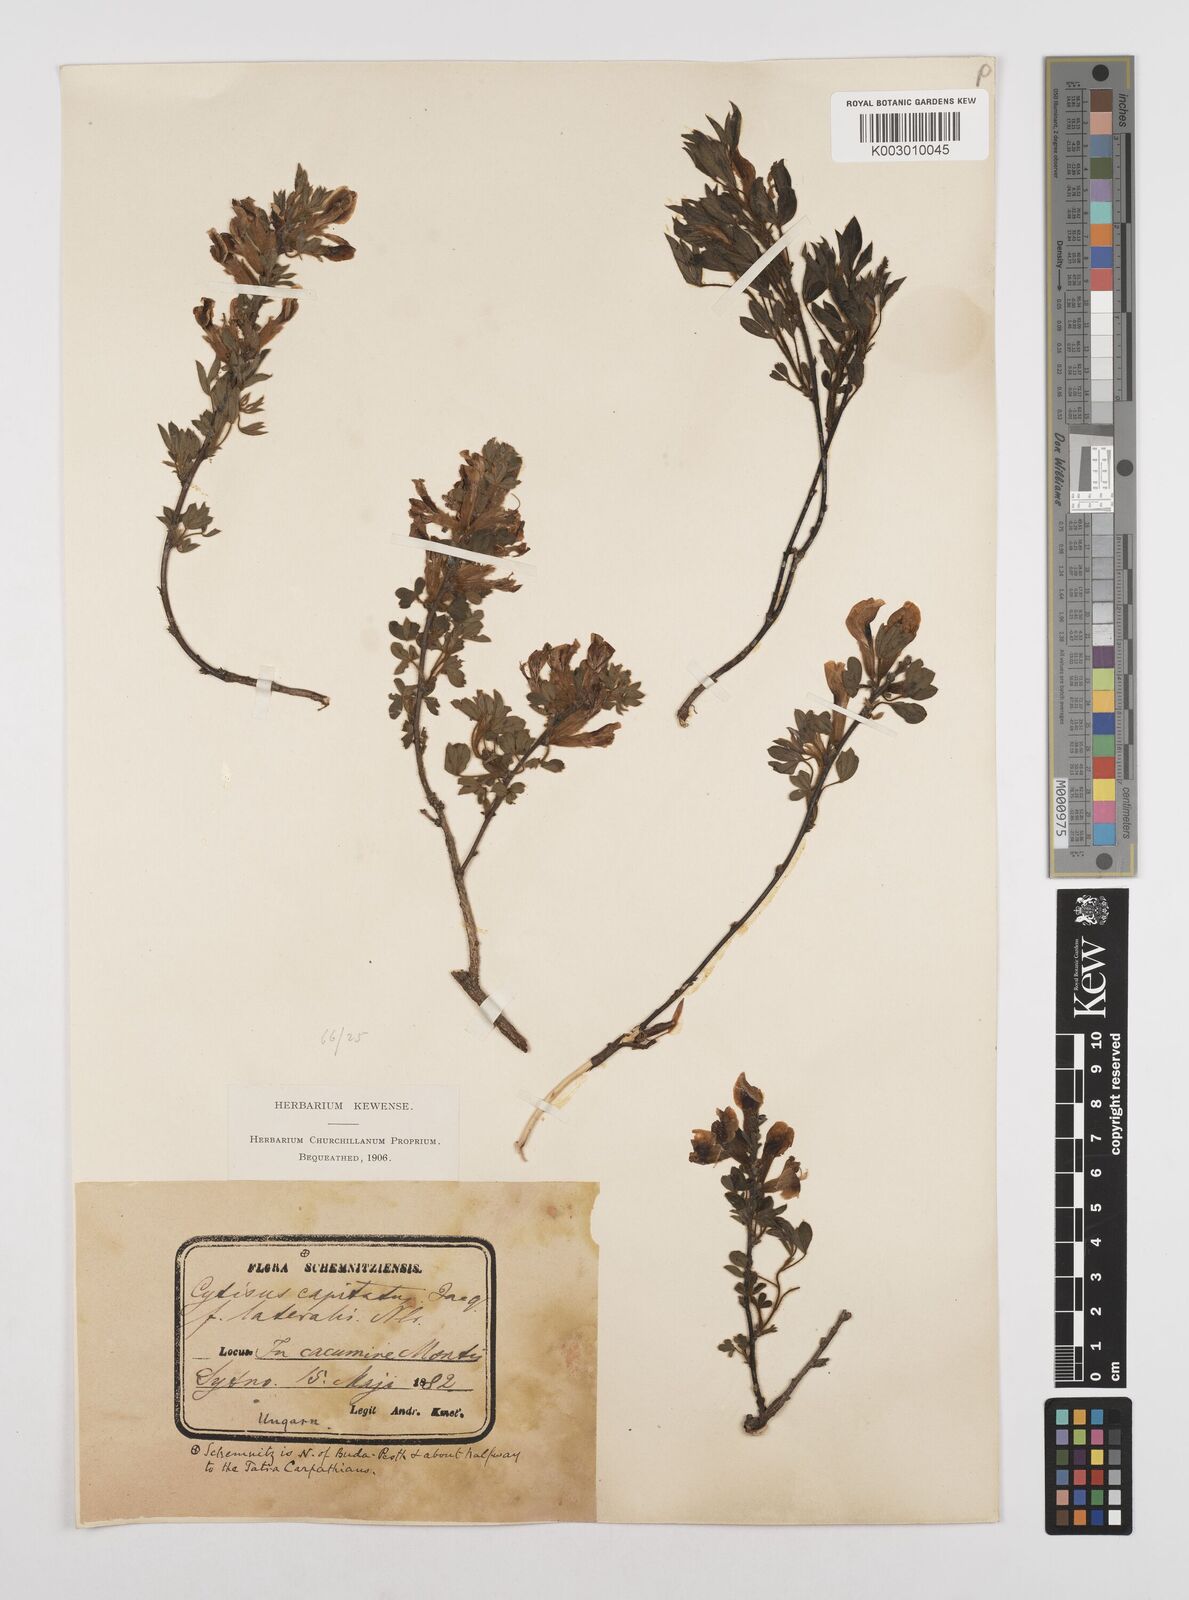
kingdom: Plantae
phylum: Tracheophyta
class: Magnoliopsida
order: Fabales
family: Fabaceae
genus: Chamaecytisus
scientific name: Chamaecytisus hirsutus
